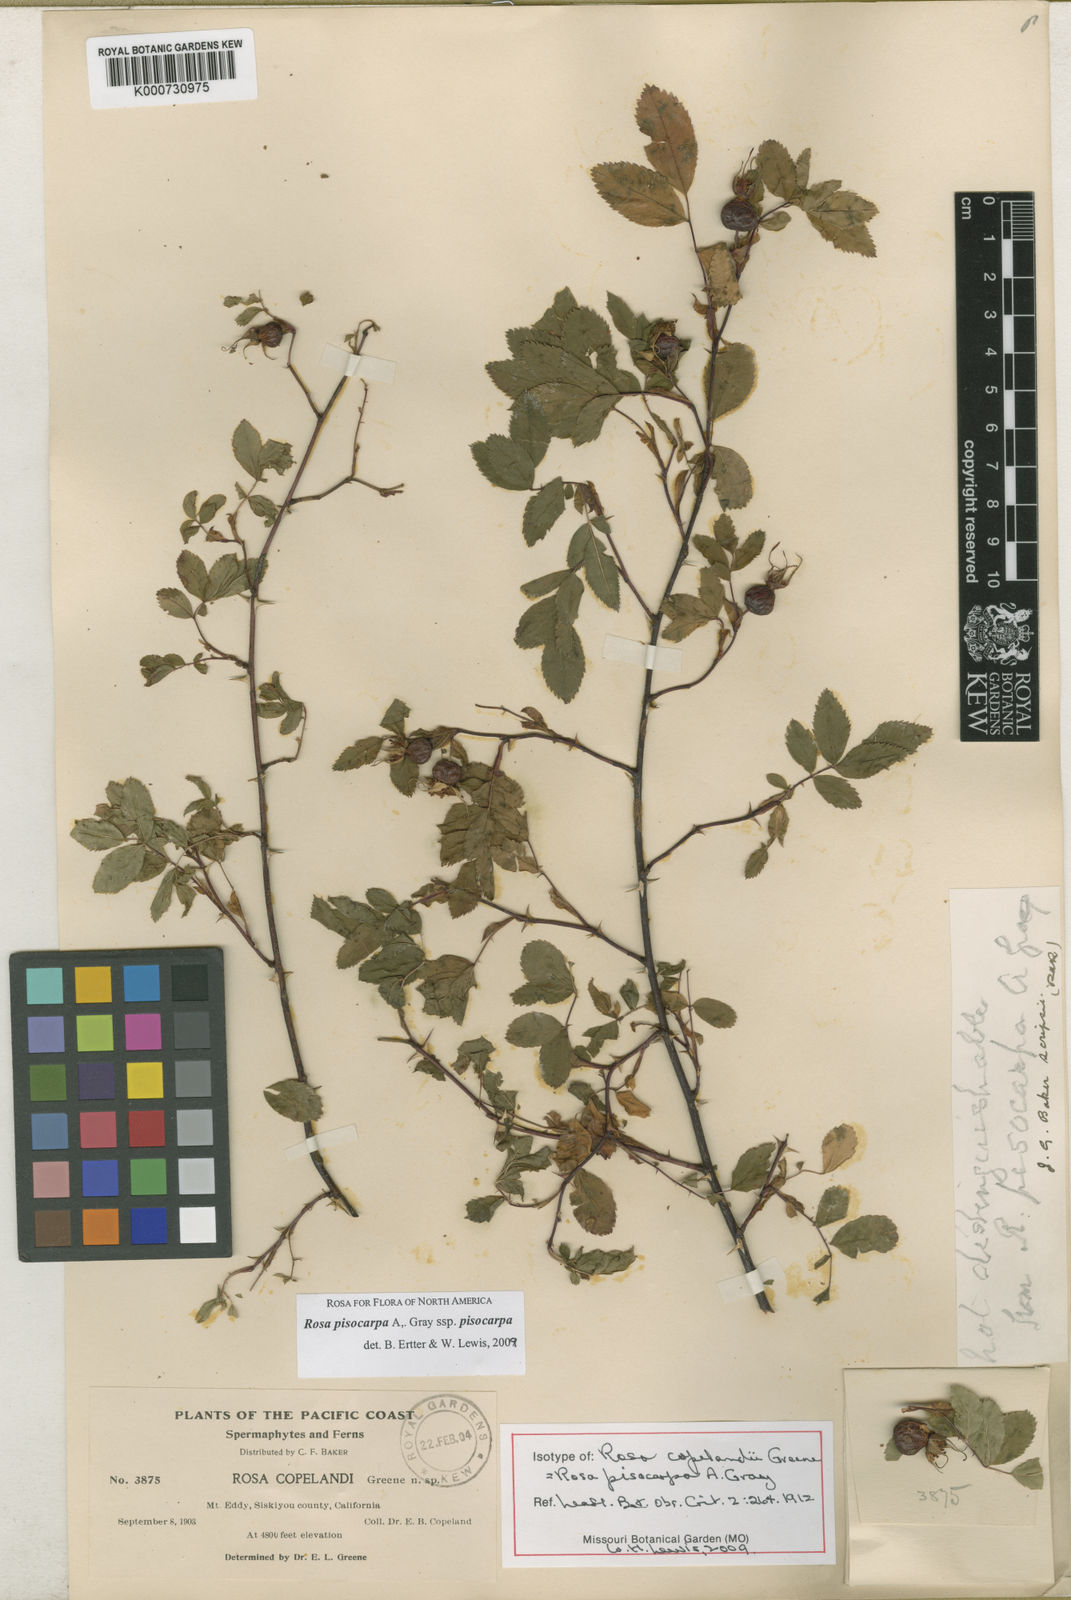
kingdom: Plantae
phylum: Tracheophyta
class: Magnoliopsida
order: Rosales
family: Rosaceae
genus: Rosa
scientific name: Rosa pisocarpa
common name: Cluster rose
